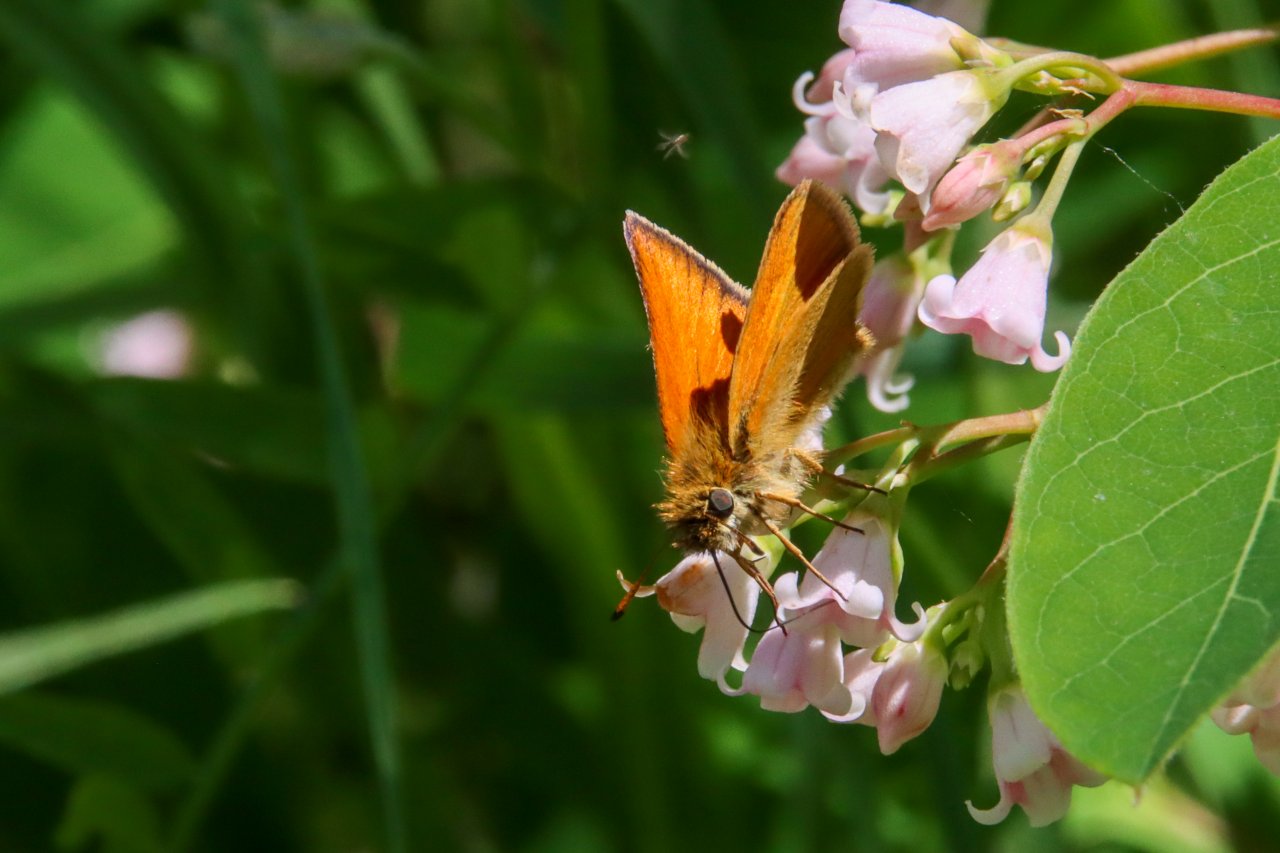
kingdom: Animalia
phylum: Arthropoda
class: Insecta
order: Lepidoptera
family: Hesperiidae
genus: Thymelicus
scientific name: Thymelicus lineola
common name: European Skipper
